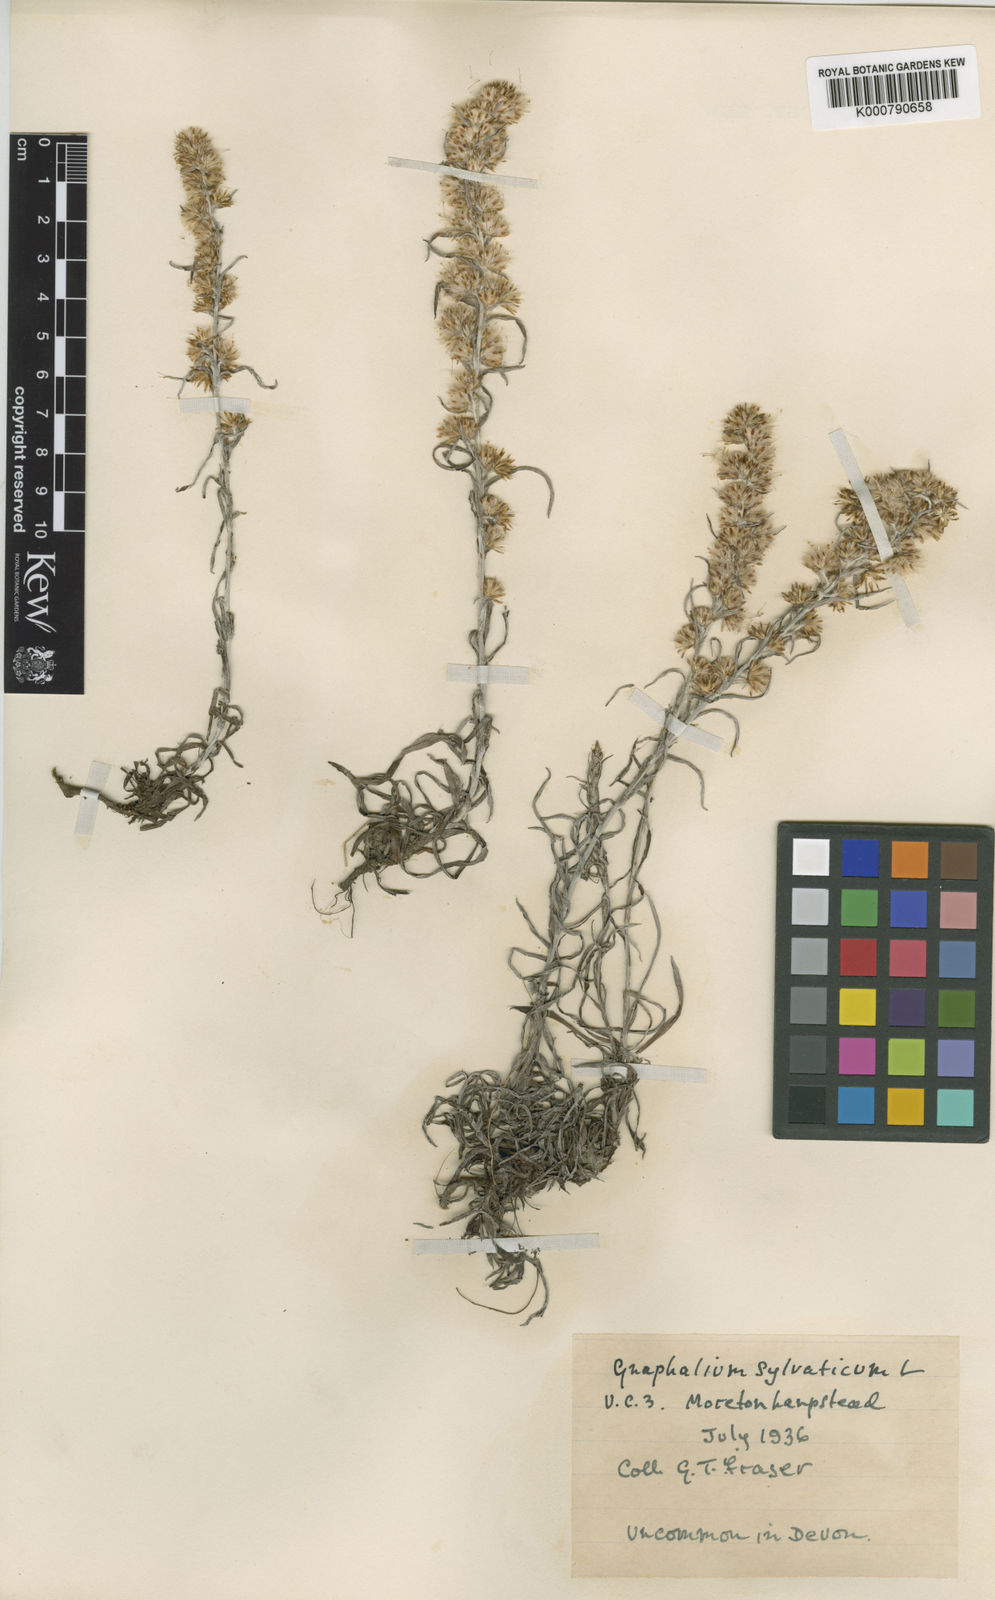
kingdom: Plantae
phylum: Tracheophyta
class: Magnoliopsida
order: Asterales
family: Asteraceae
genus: Omalotheca
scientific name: Omalotheca sylvatica
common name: Heath cudweed
